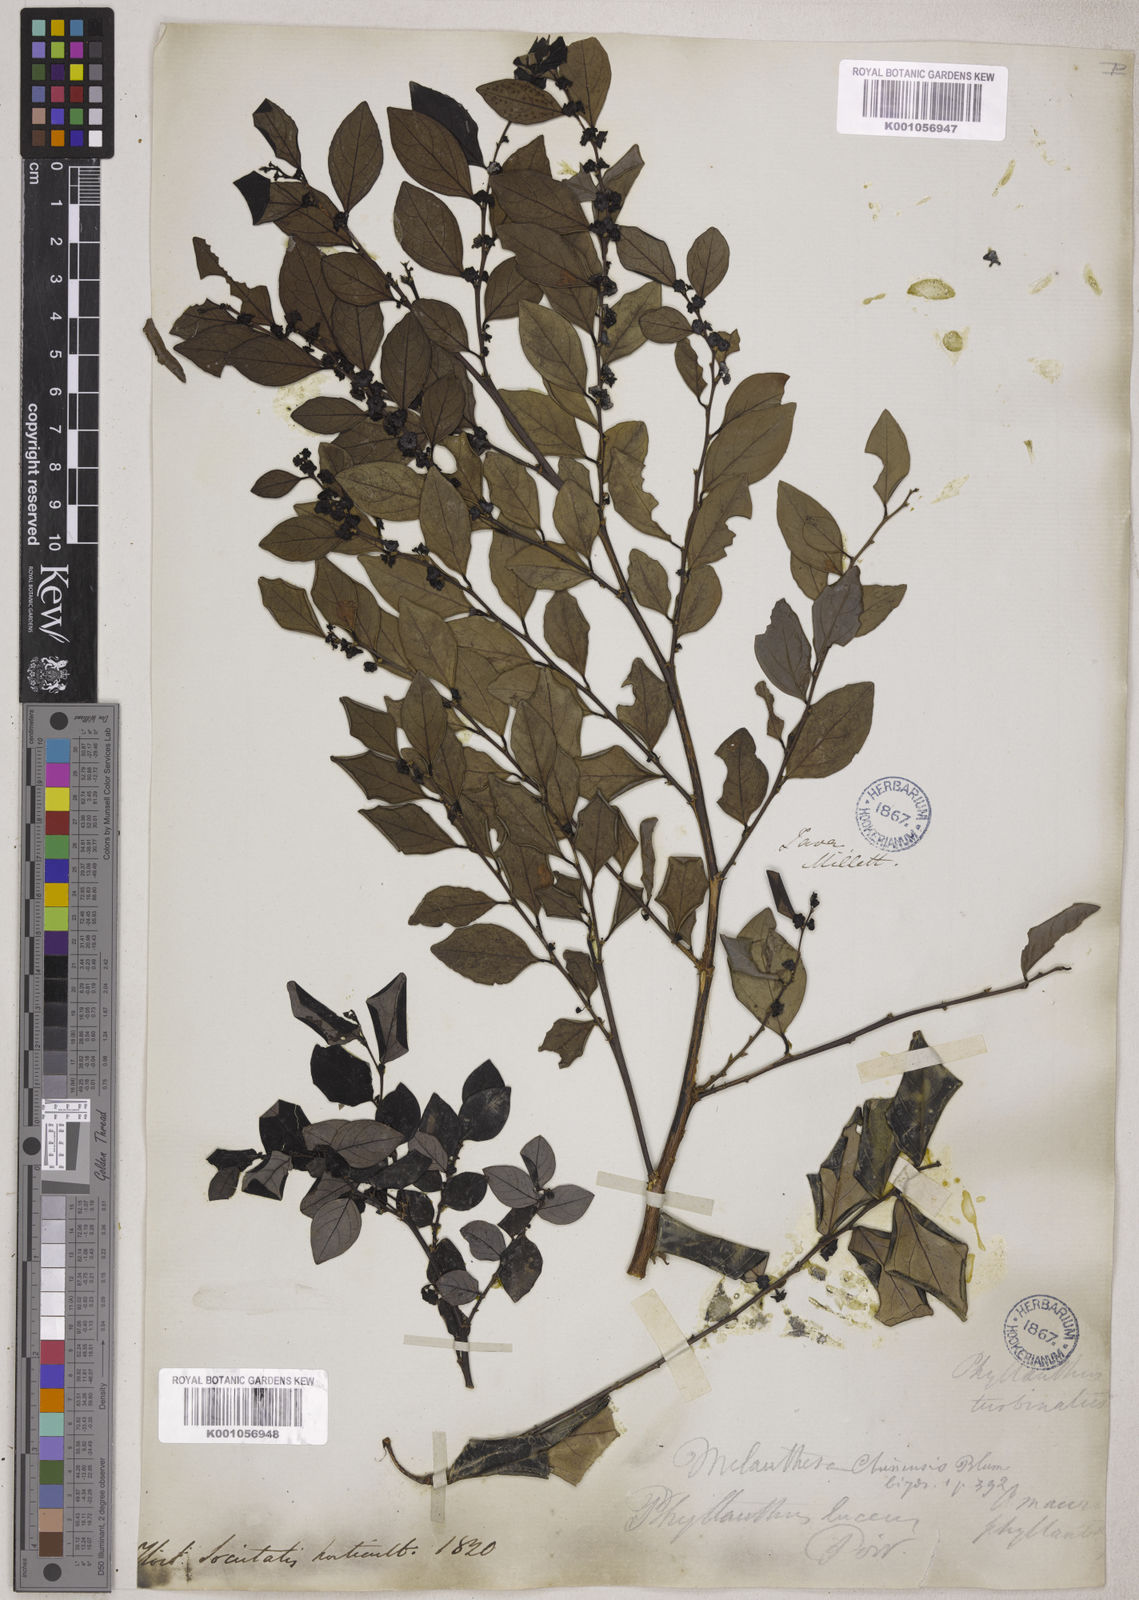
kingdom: Plantae
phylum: Tracheophyta
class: Magnoliopsida
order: Malpighiales
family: Phyllanthaceae
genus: Breynia
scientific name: Breynia
